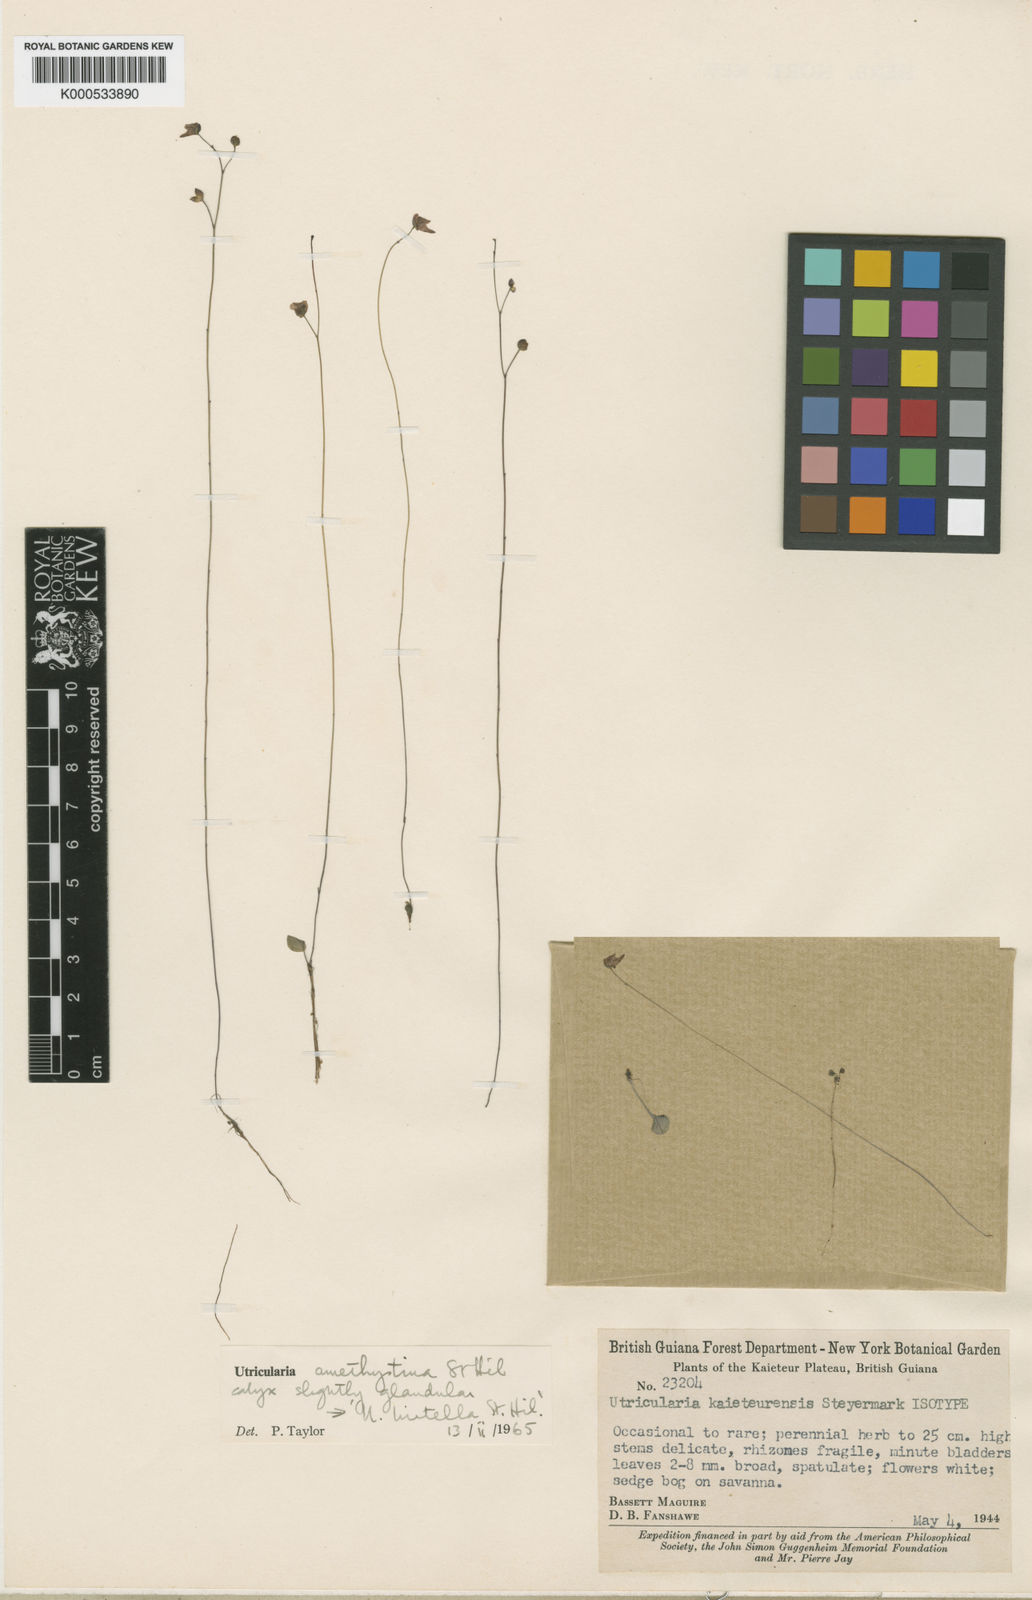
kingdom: Plantae
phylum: Tracheophyta
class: Magnoliopsida
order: Lamiales
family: Lentibulariaceae
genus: Utricularia
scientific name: Utricularia amethystina
